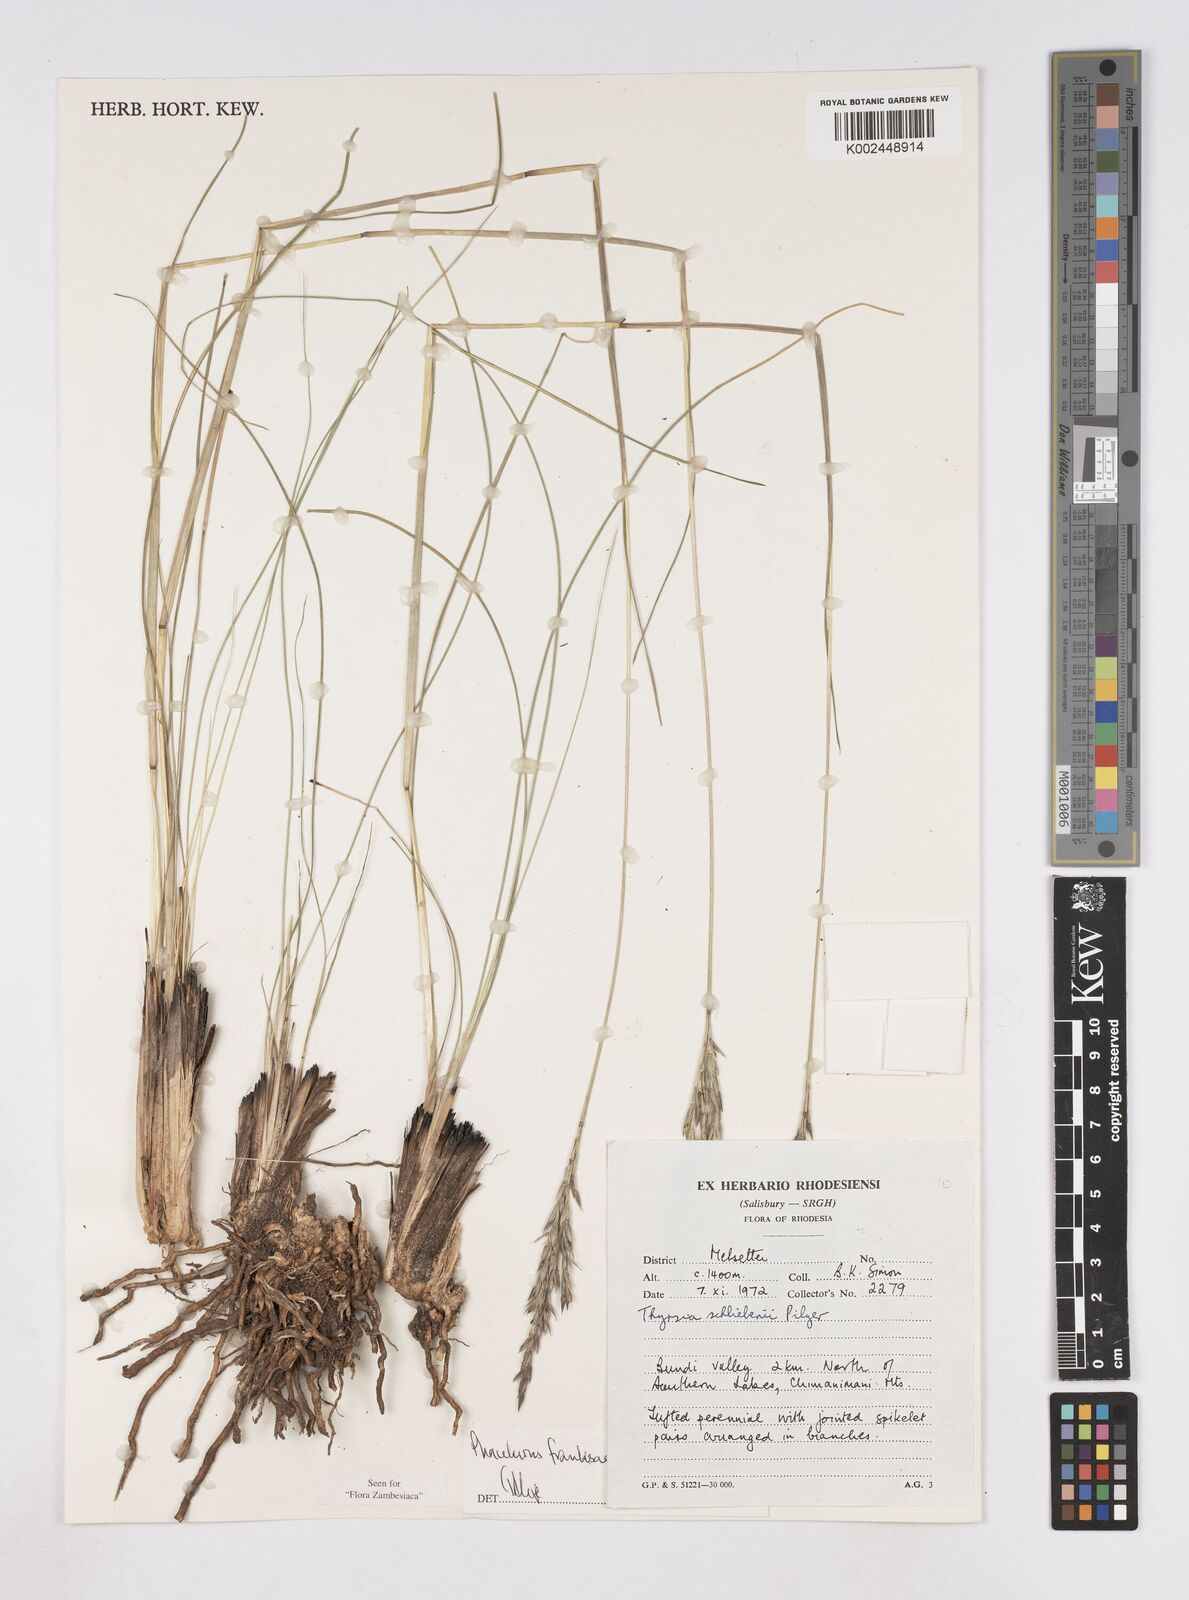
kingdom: Plantae
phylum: Tracheophyta
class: Liliopsida
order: Poales
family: Poaceae
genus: Phacelurus
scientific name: Phacelurus franksiae
